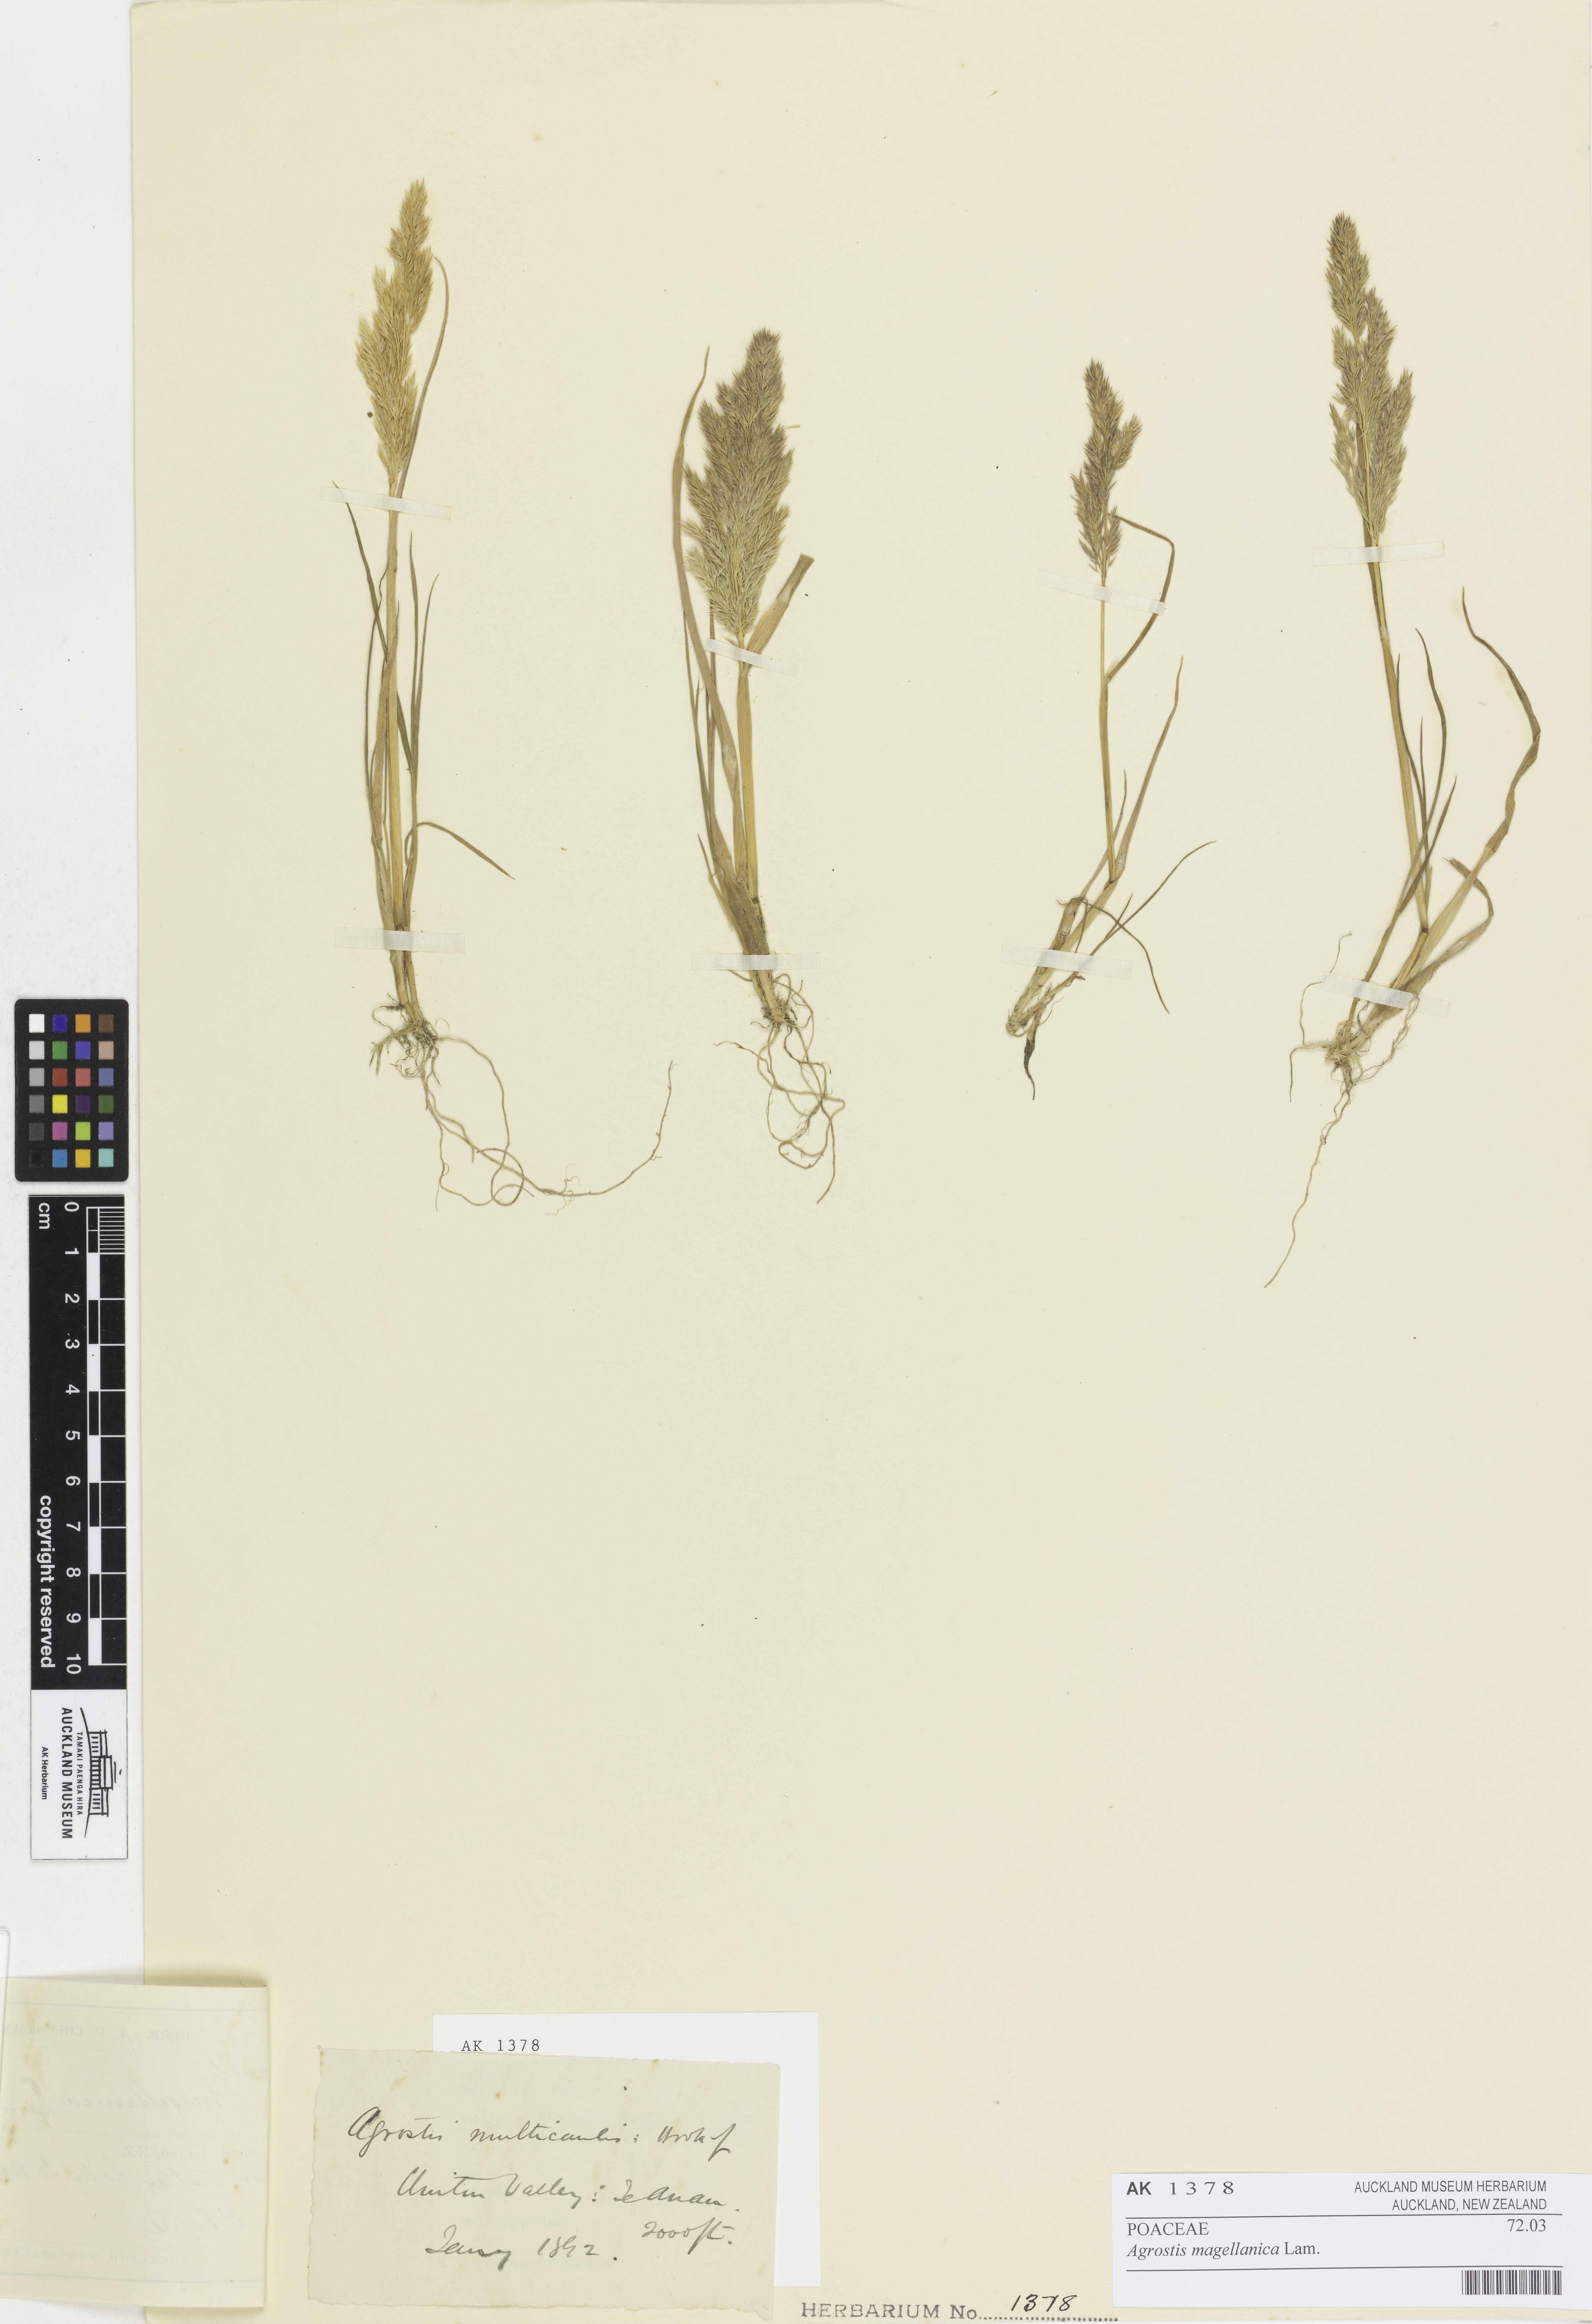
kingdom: Plantae
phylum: Tracheophyta
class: Liliopsida
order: Poales
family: Poaceae
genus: Polypogon
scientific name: Polypogon magellanicus
